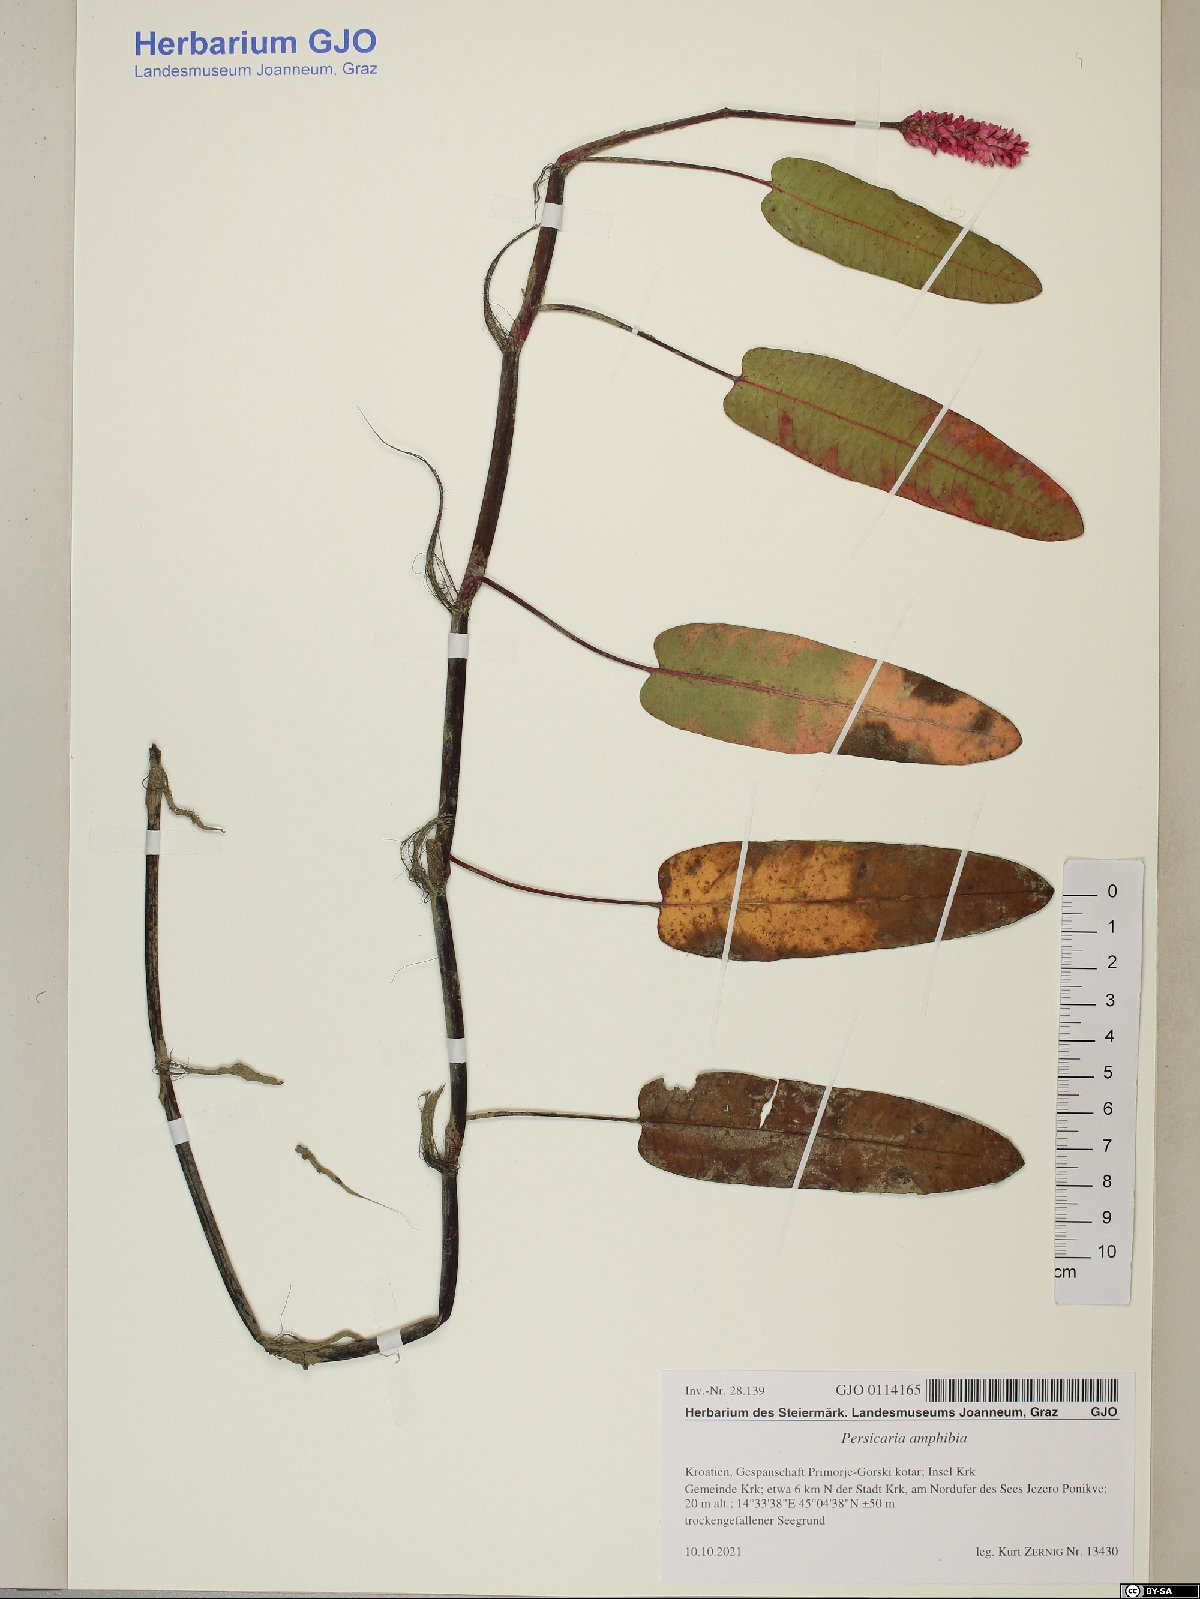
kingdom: Plantae
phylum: Tracheophyta
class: Magnoliopsida
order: Caryophyllales
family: Polygonaceae
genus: Persicaria
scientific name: Persicaria amphibia
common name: Amphibious bistort
